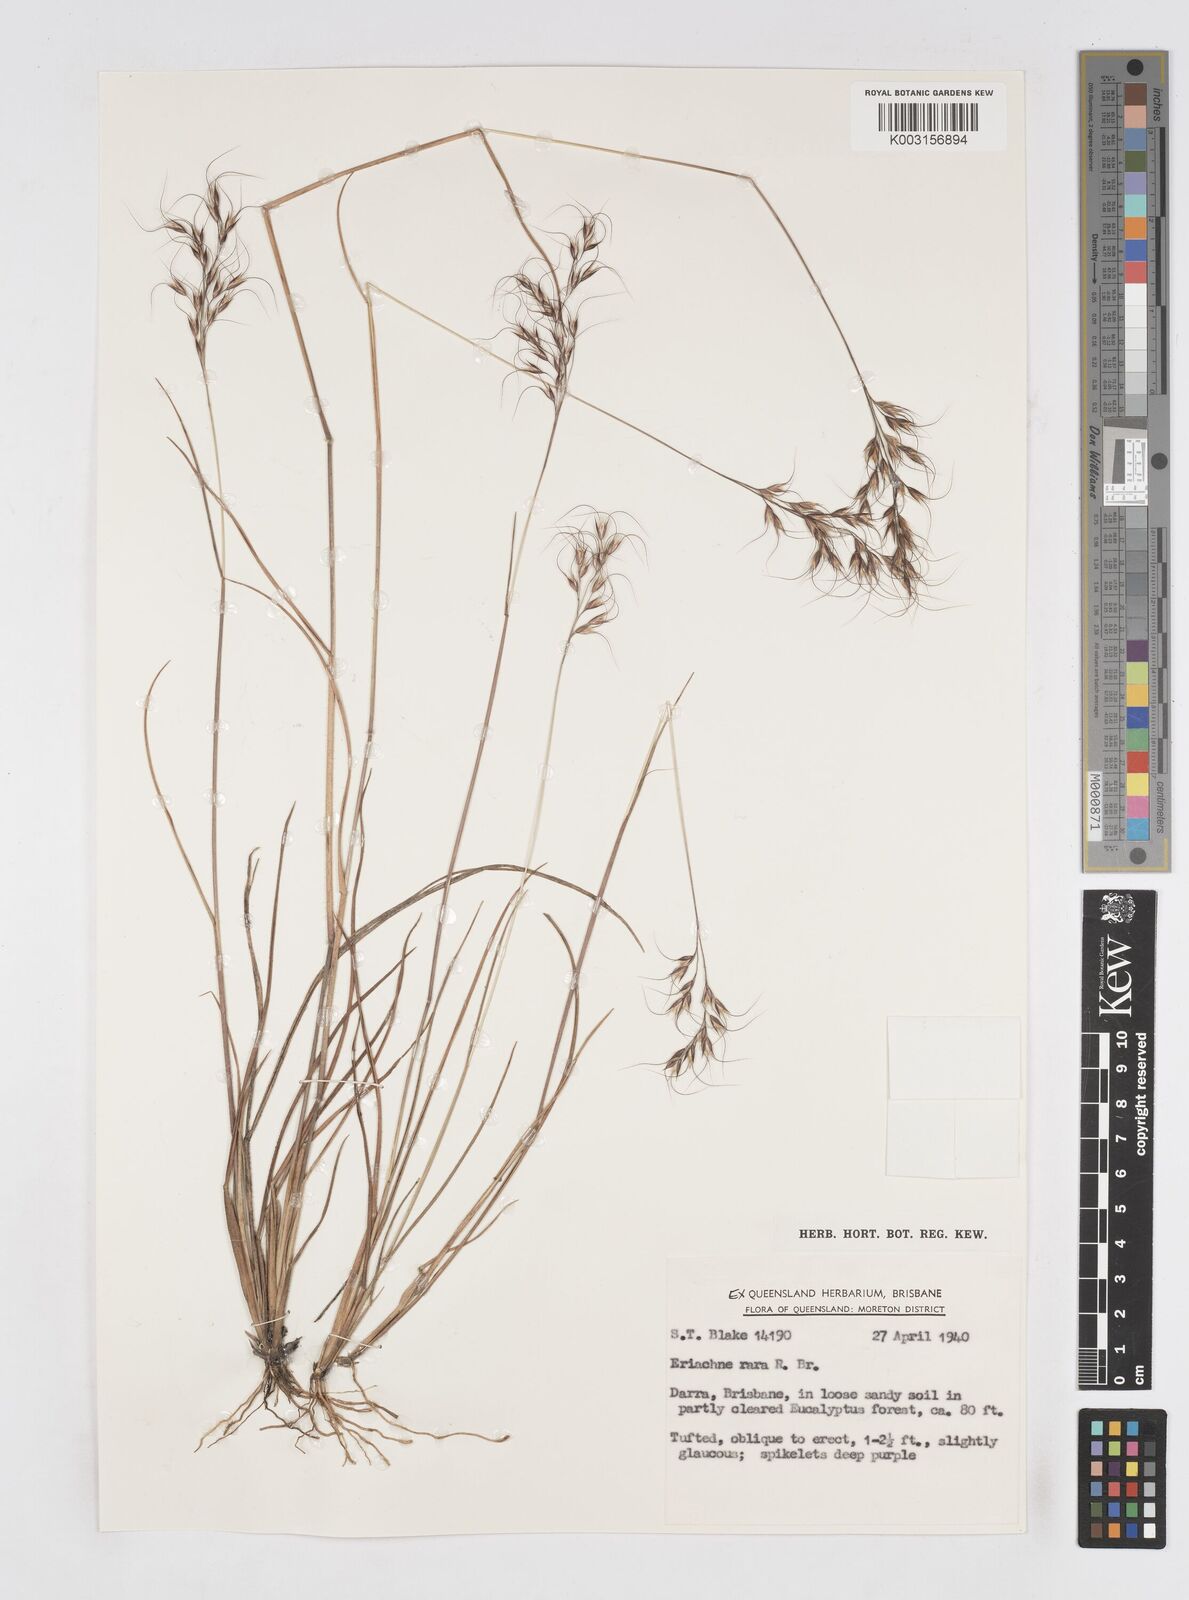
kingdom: Plantae
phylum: Tracheophyta
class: Liliopsida
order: Poales
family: Poaceae
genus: Eriachne
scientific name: Eriachne rara
